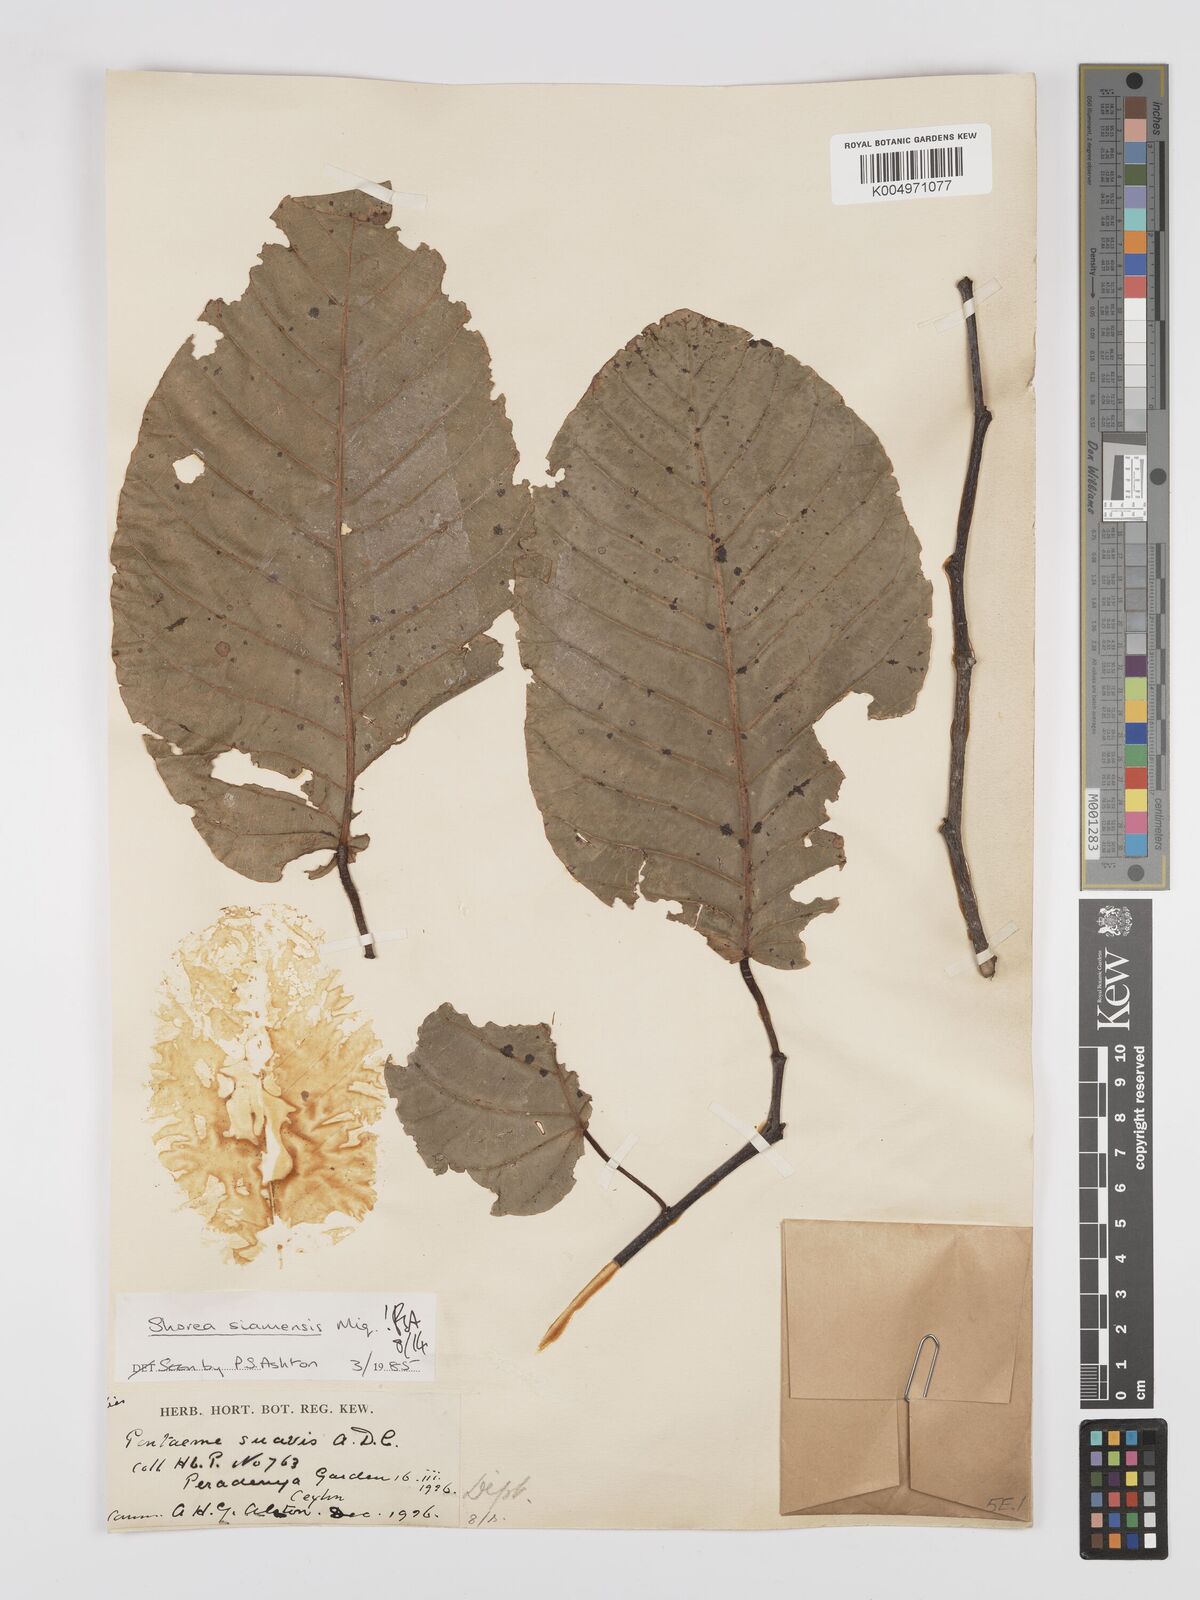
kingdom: Plantae
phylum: Tracheophyta
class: Magnoliopsida
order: Malvales
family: Dipterocarpaceae
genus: Pentacme
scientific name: Pentacme siamensis
